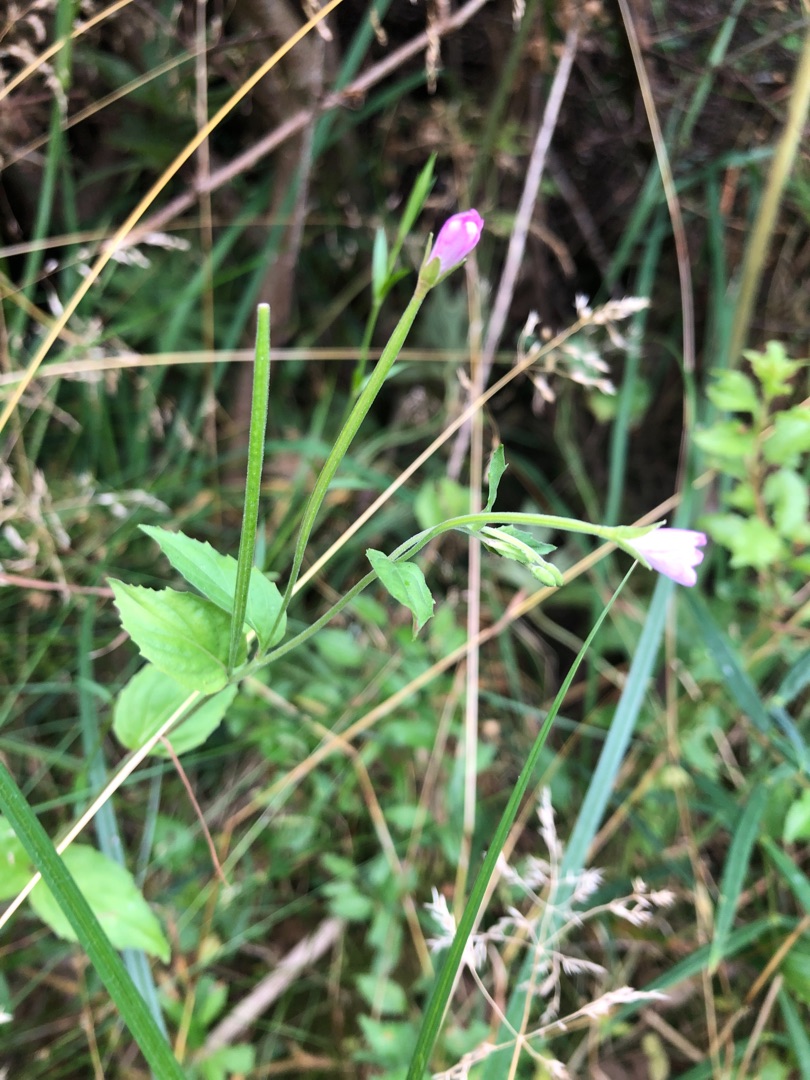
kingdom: Plantae
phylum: Tracheophyta
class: Magnoliopsida
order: Myrtales
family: Onagraceae
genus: Epilobium
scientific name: Epilobium montanum
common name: Glat dueurt
